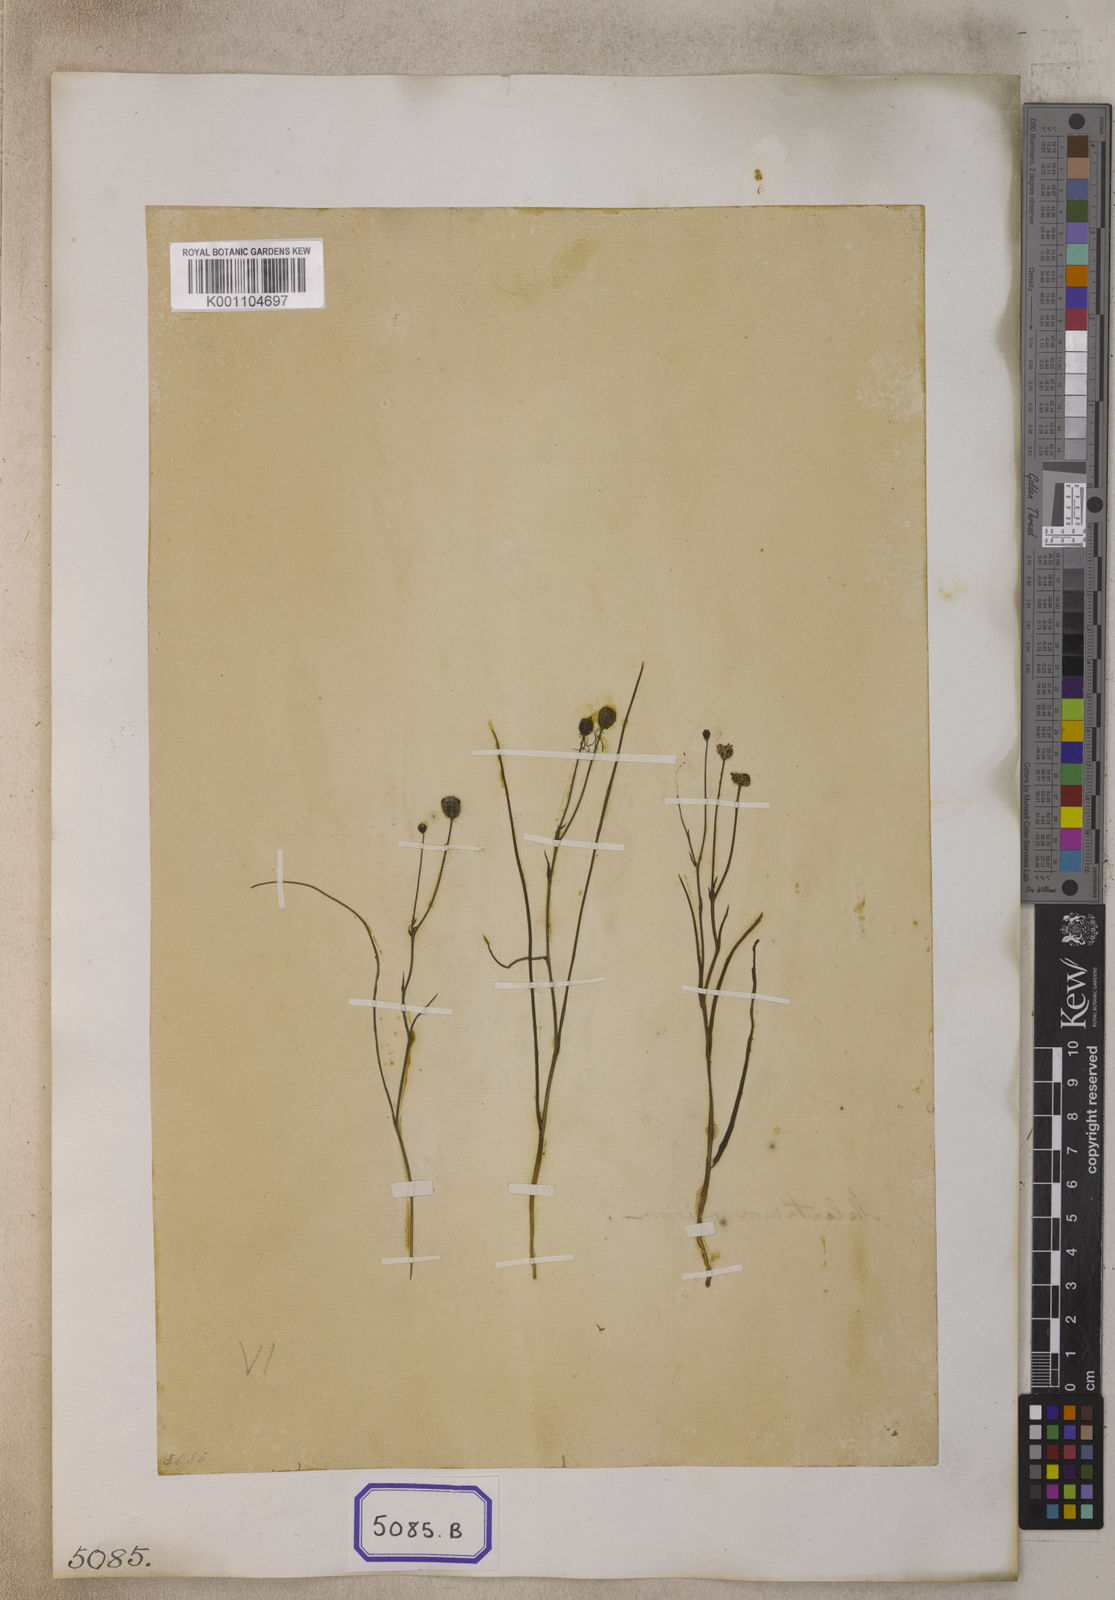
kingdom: Plantae
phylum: Tracheophyta
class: Liliopsida
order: Liliales
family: Colchicaceae
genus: Iphigenia
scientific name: Iphigenia indica
